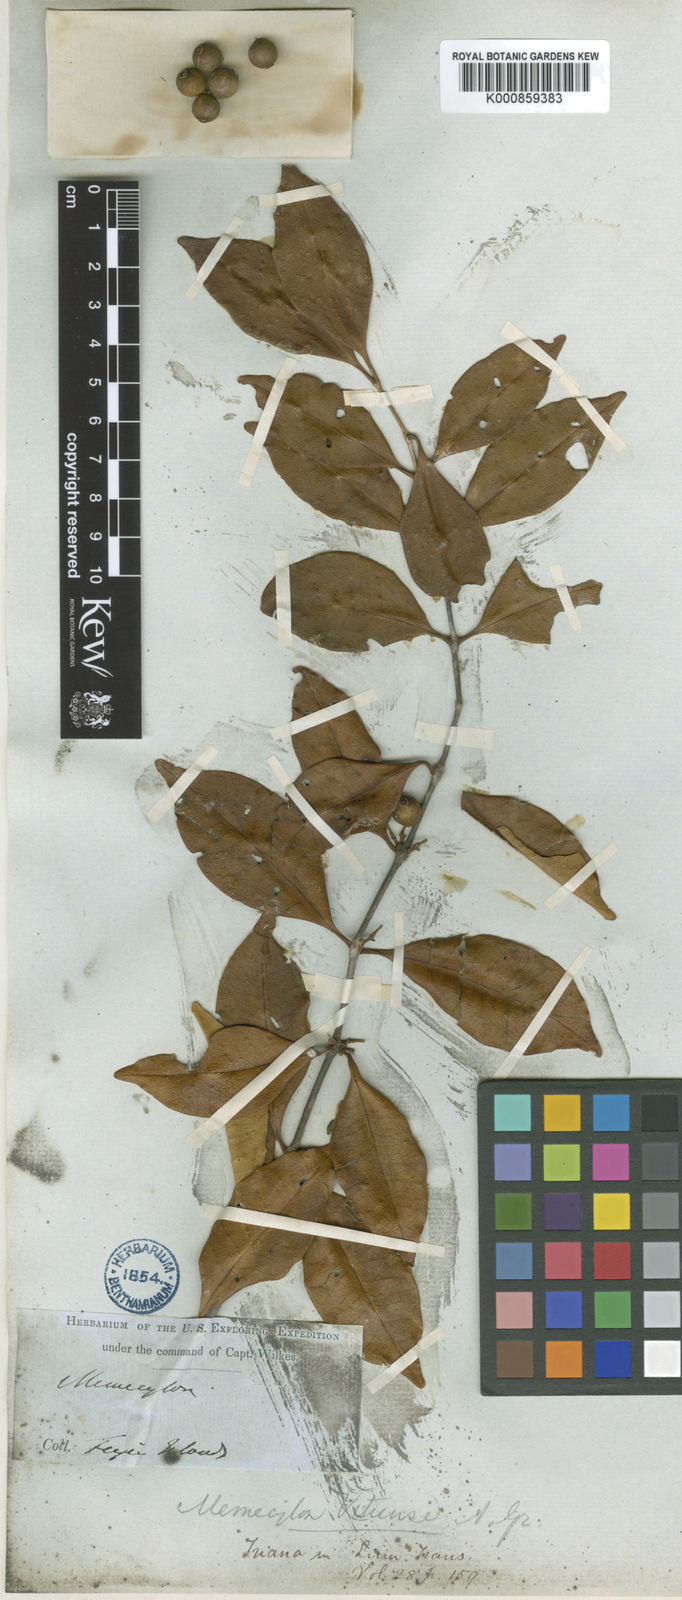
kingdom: Plantae
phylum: Tracheophyta
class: Magnoliopsida
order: Myrtales
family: Melastomataceae
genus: Memecylon
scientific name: Memecylon vitiense
